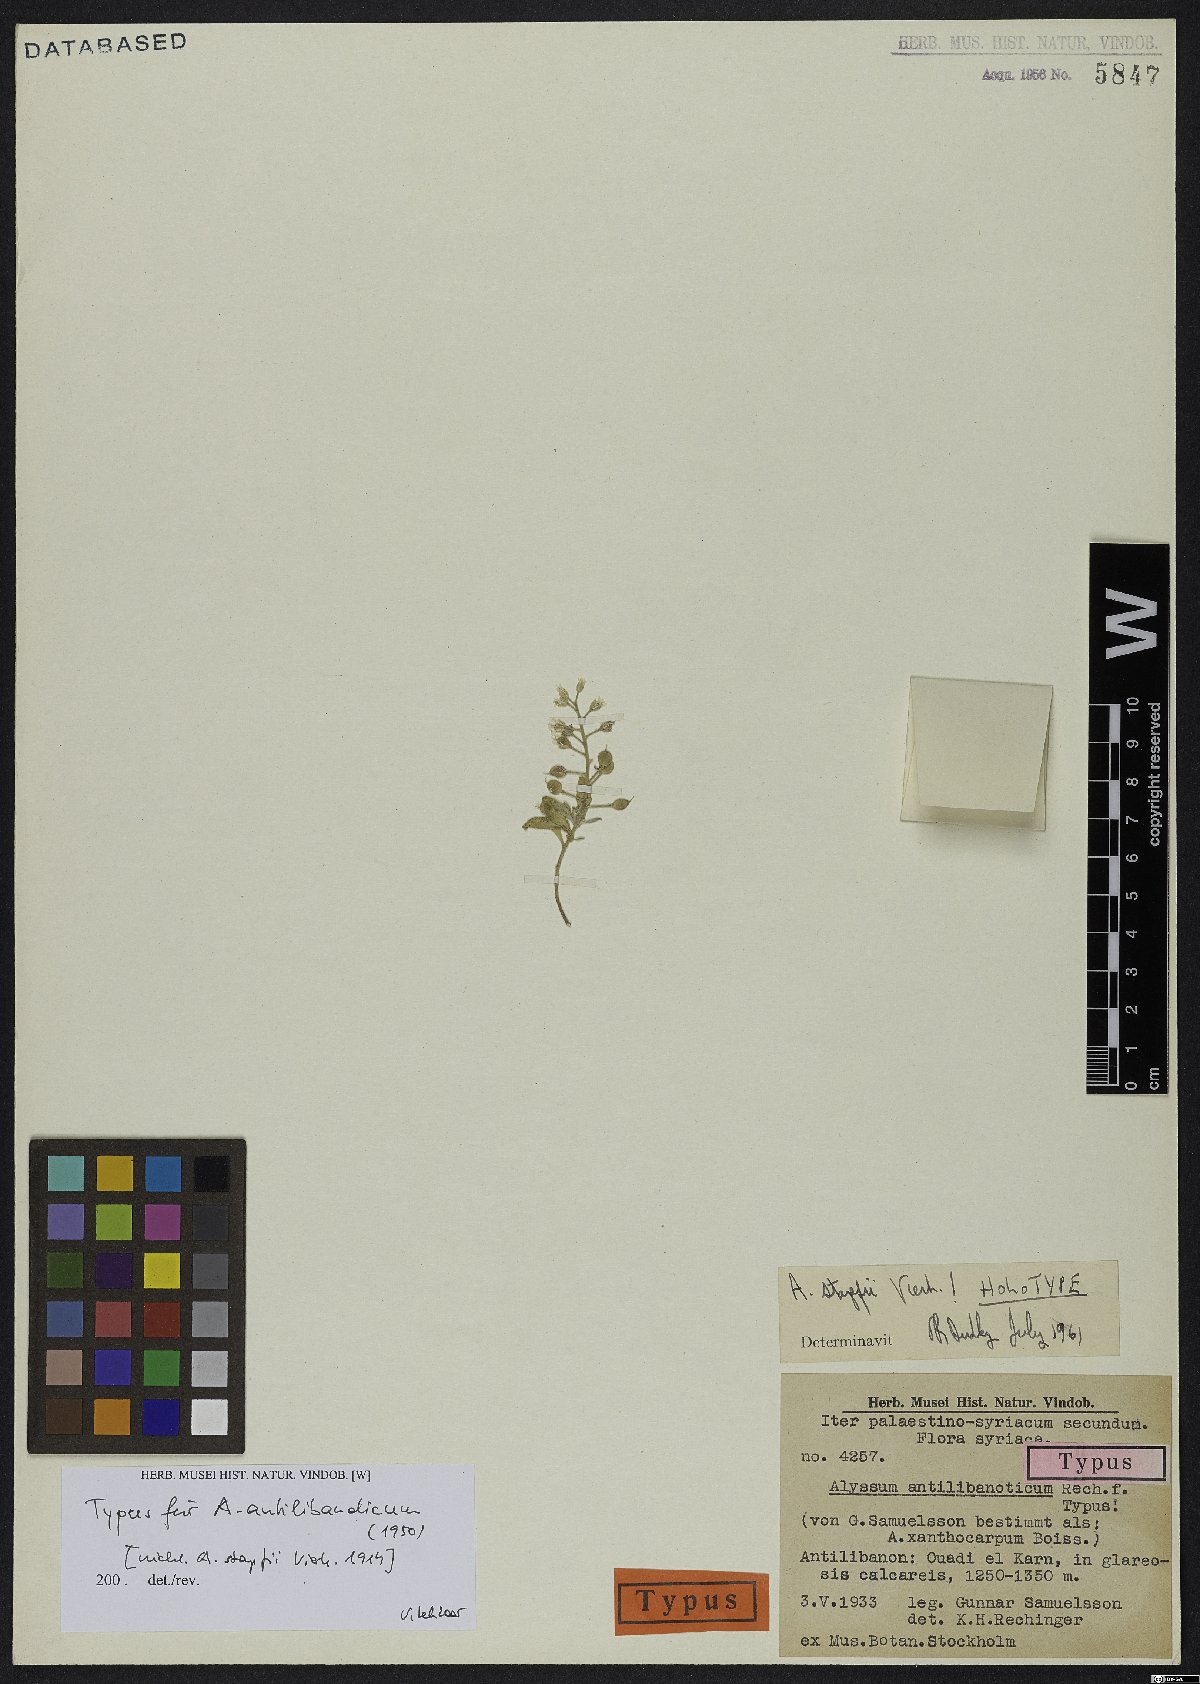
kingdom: Plantae
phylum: Tracheophyta
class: Magnoliopsida
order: Brassicales
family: Brassicaceae
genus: Alyssum
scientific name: Alyssum stapfii
